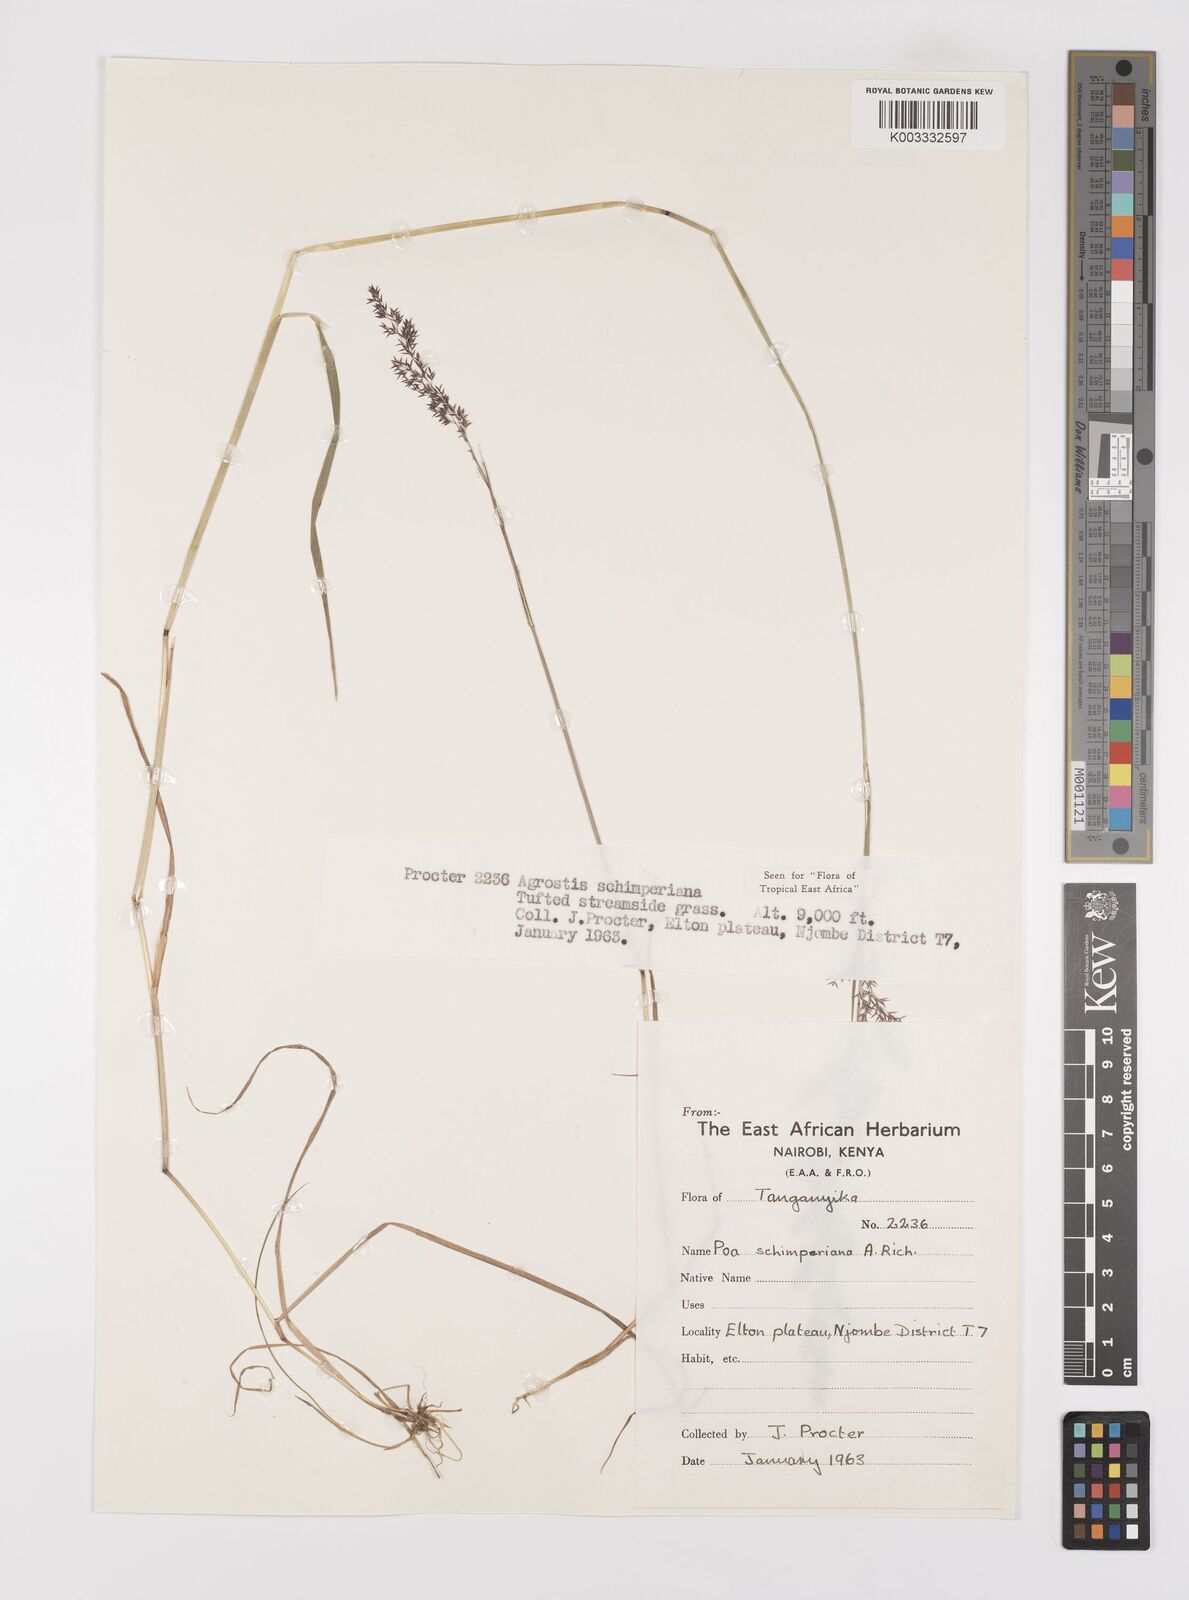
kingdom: Plantae
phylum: Tracheophyta
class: Liliopsida
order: Poales
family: Poaceae
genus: Polypogon
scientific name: Polypogon schimperianus
